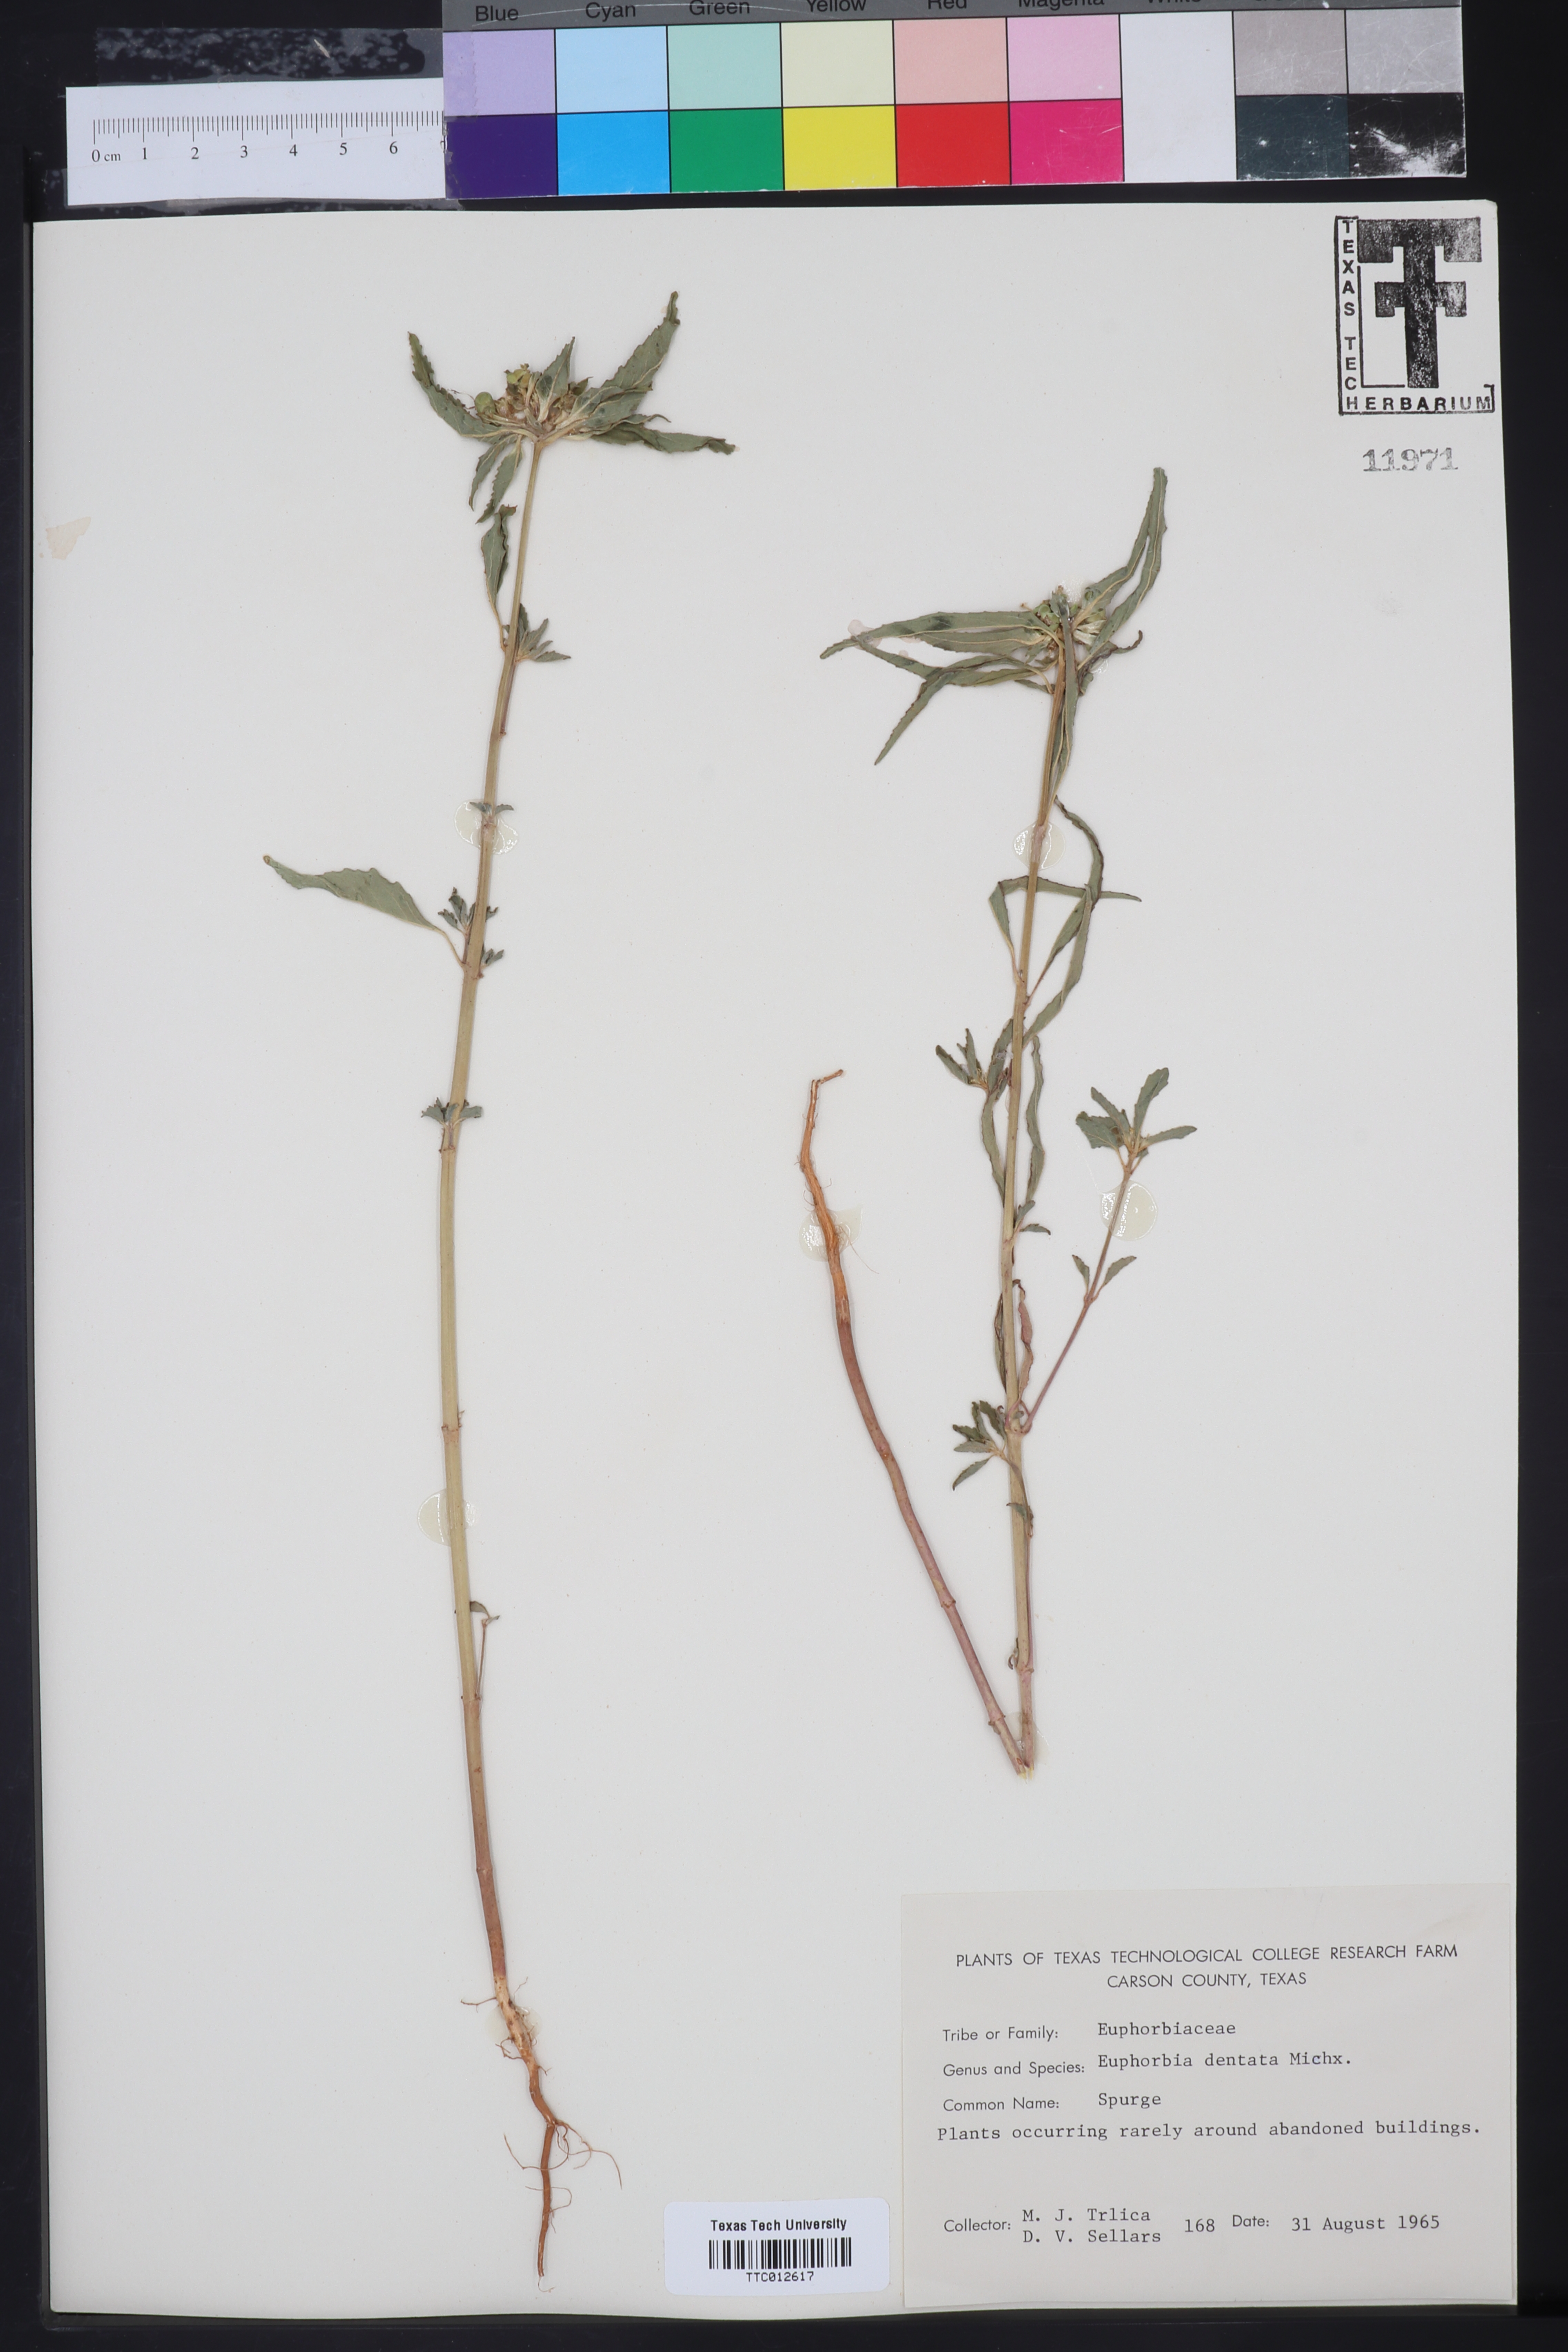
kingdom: Plantae
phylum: Tracheophyta
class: Magnoliopsida
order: Malpighiales
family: Euphorbiaceae
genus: Euphorbia
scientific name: Euphorbia dentata
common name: Dentate spurge
